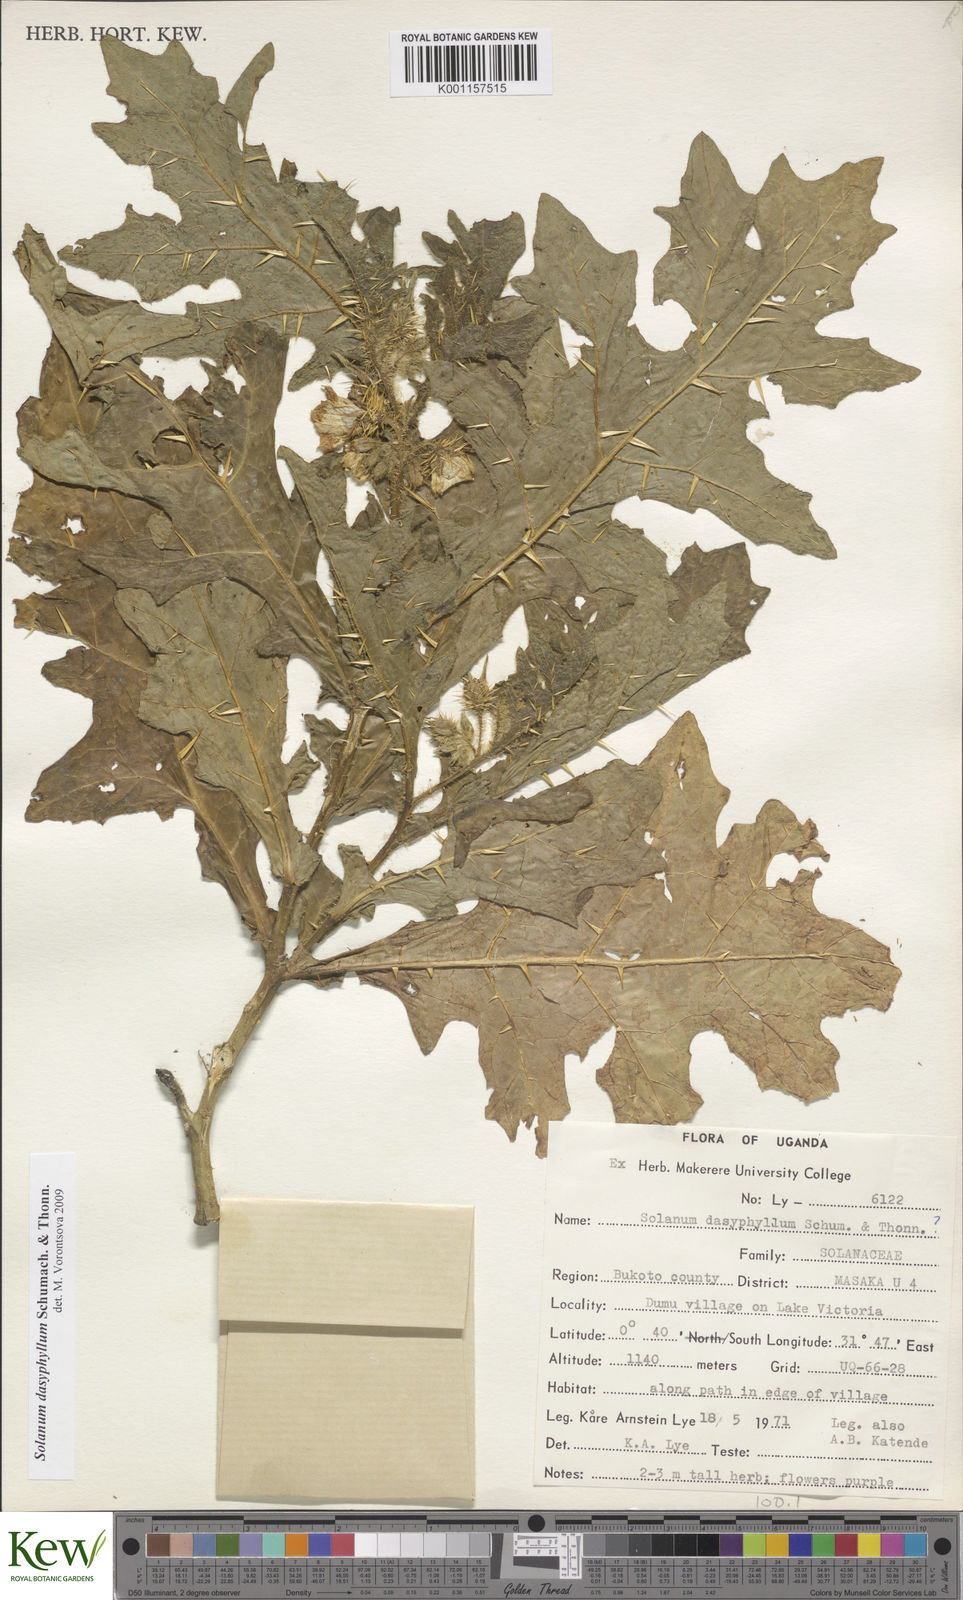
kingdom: Plantae
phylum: Tracheophyta
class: Magnoliopsida
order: Solanales
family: Solanaceae
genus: Solanum
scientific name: Solanum dasyphyllum
